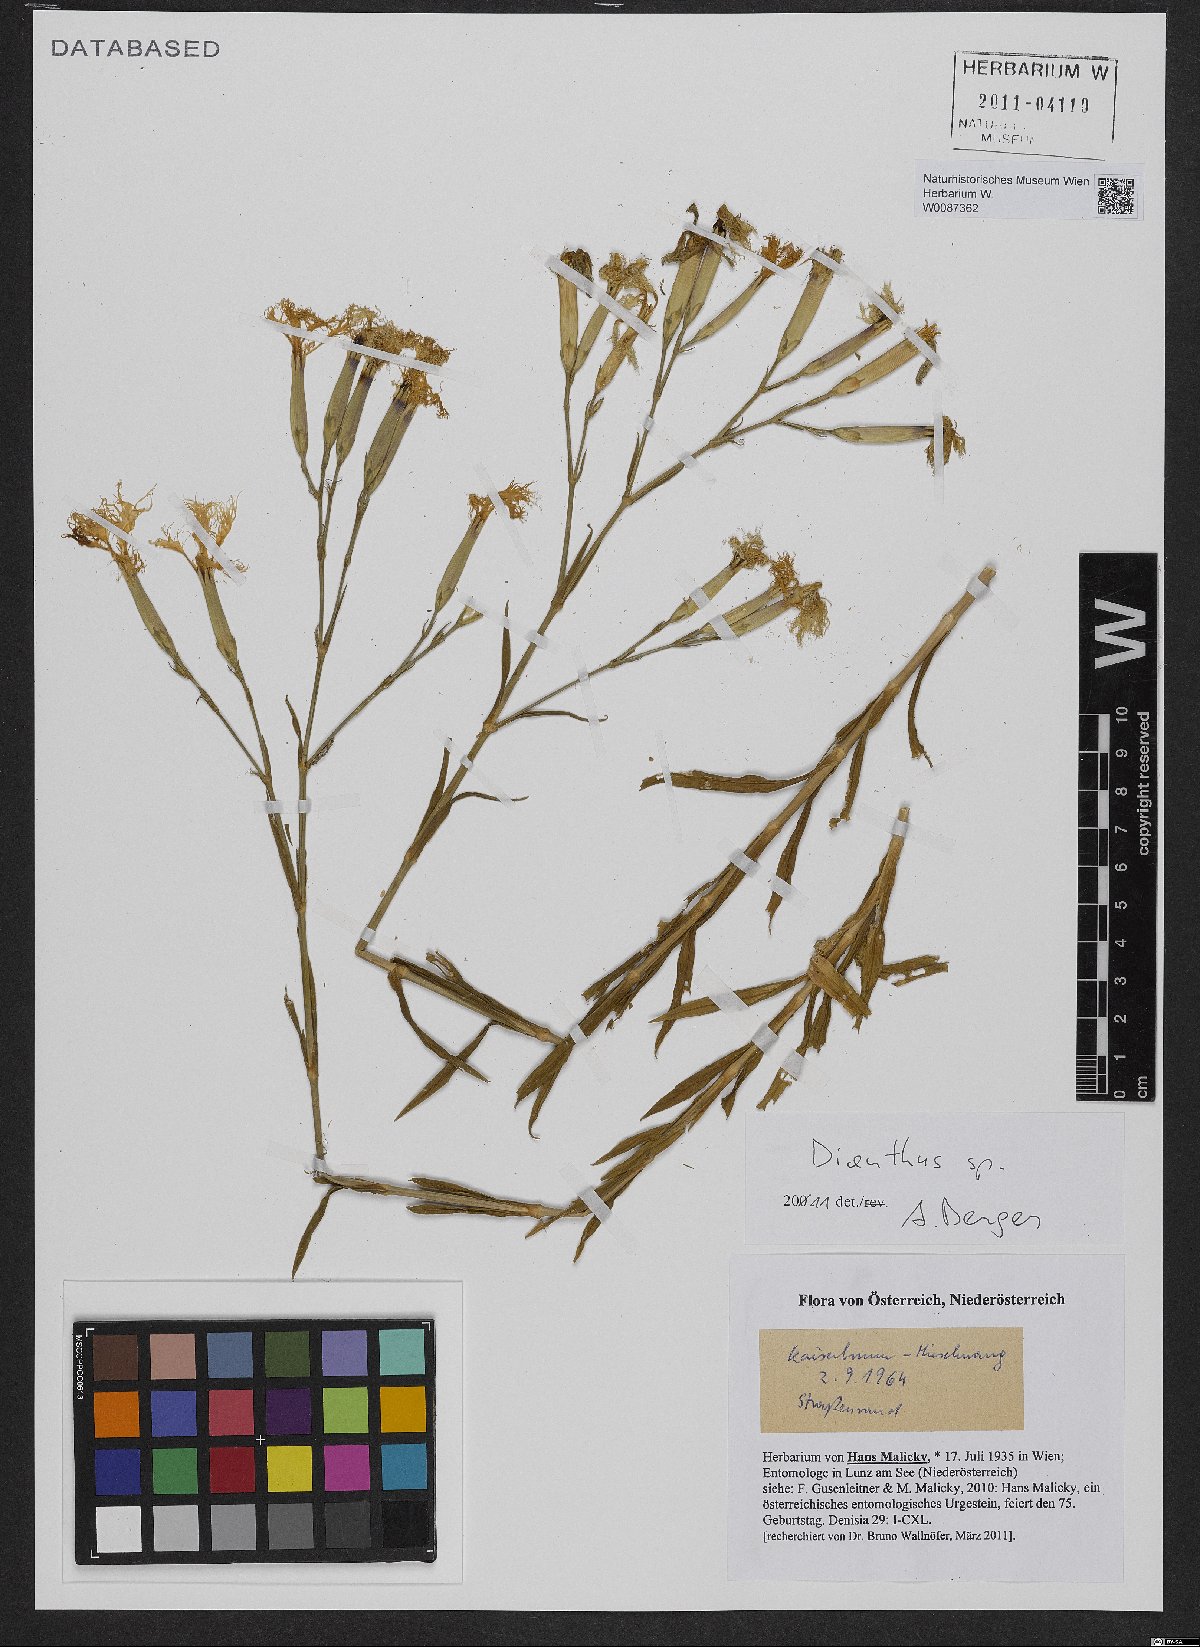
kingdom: Plantae
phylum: Tracheophyta
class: Magnoliopsida
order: Caryophyllales
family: Caryophyllaceae
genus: Dianthus
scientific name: Dianthus superbus
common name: Fringed pink
